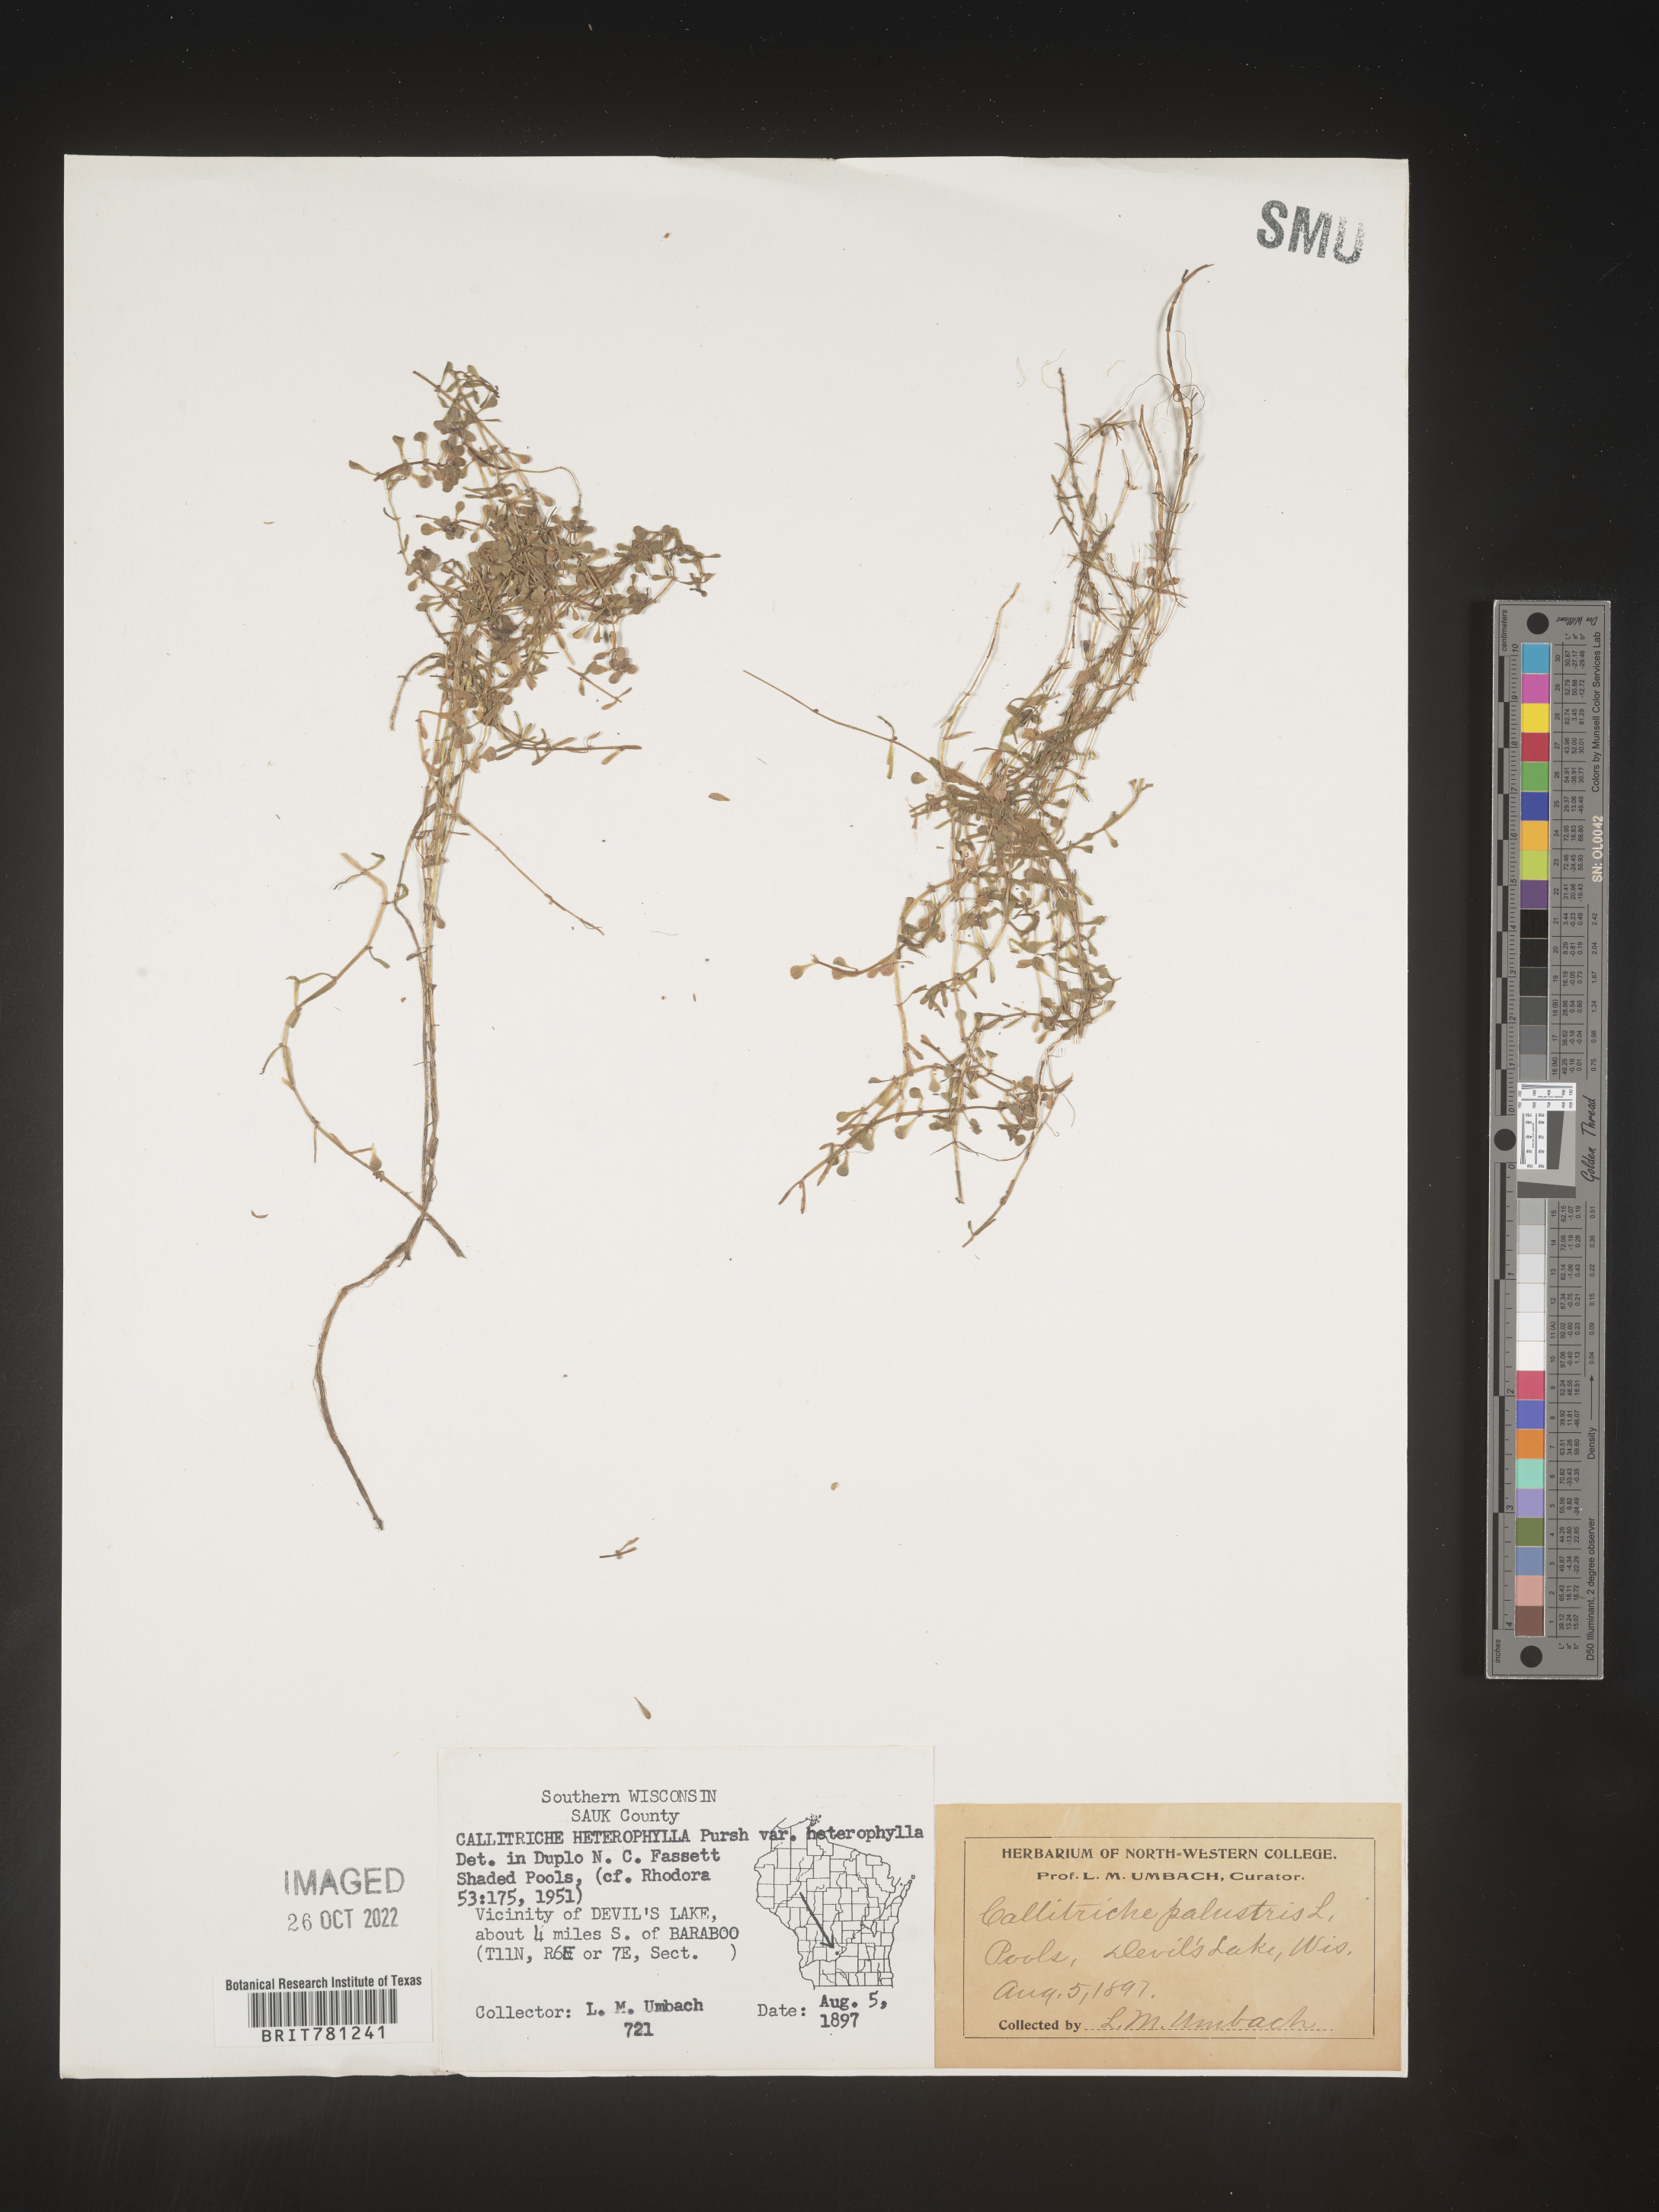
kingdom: Plantae
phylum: Tracheophyta
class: Magnoliopsida
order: Lamiales
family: Plantaginaceae
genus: Callitriche
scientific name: Callitriche heterophylla
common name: Two-headed water-starwort
